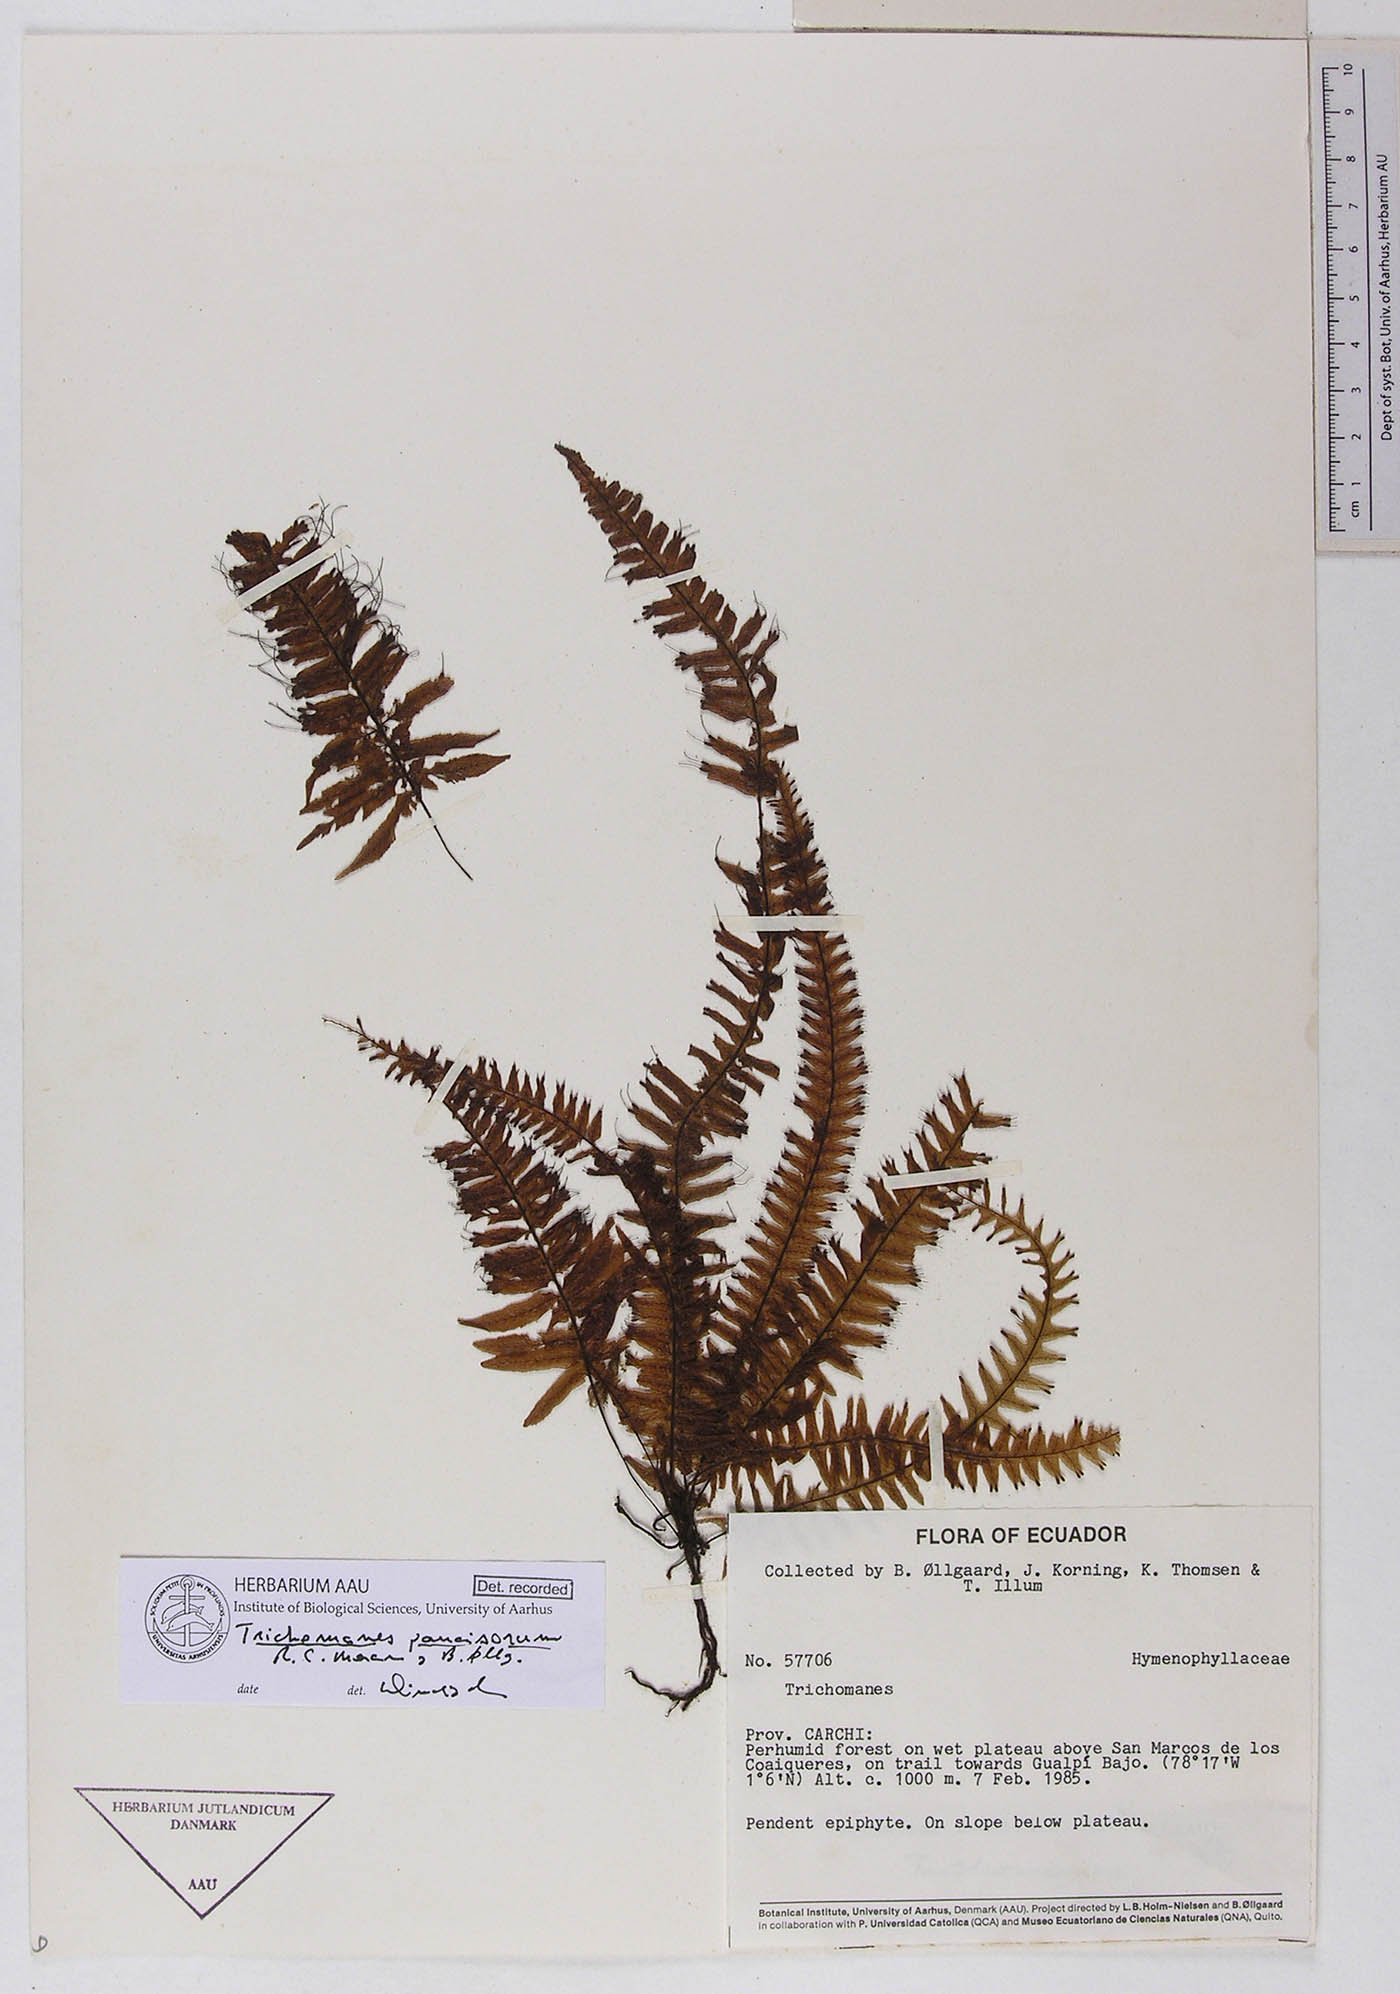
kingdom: Plantae
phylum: Tracheophyta
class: Polypodiopsida
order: Hymenophyllales
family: Hymenophyllaceae
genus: Trichomanes
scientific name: Trichomanes paucisorum
